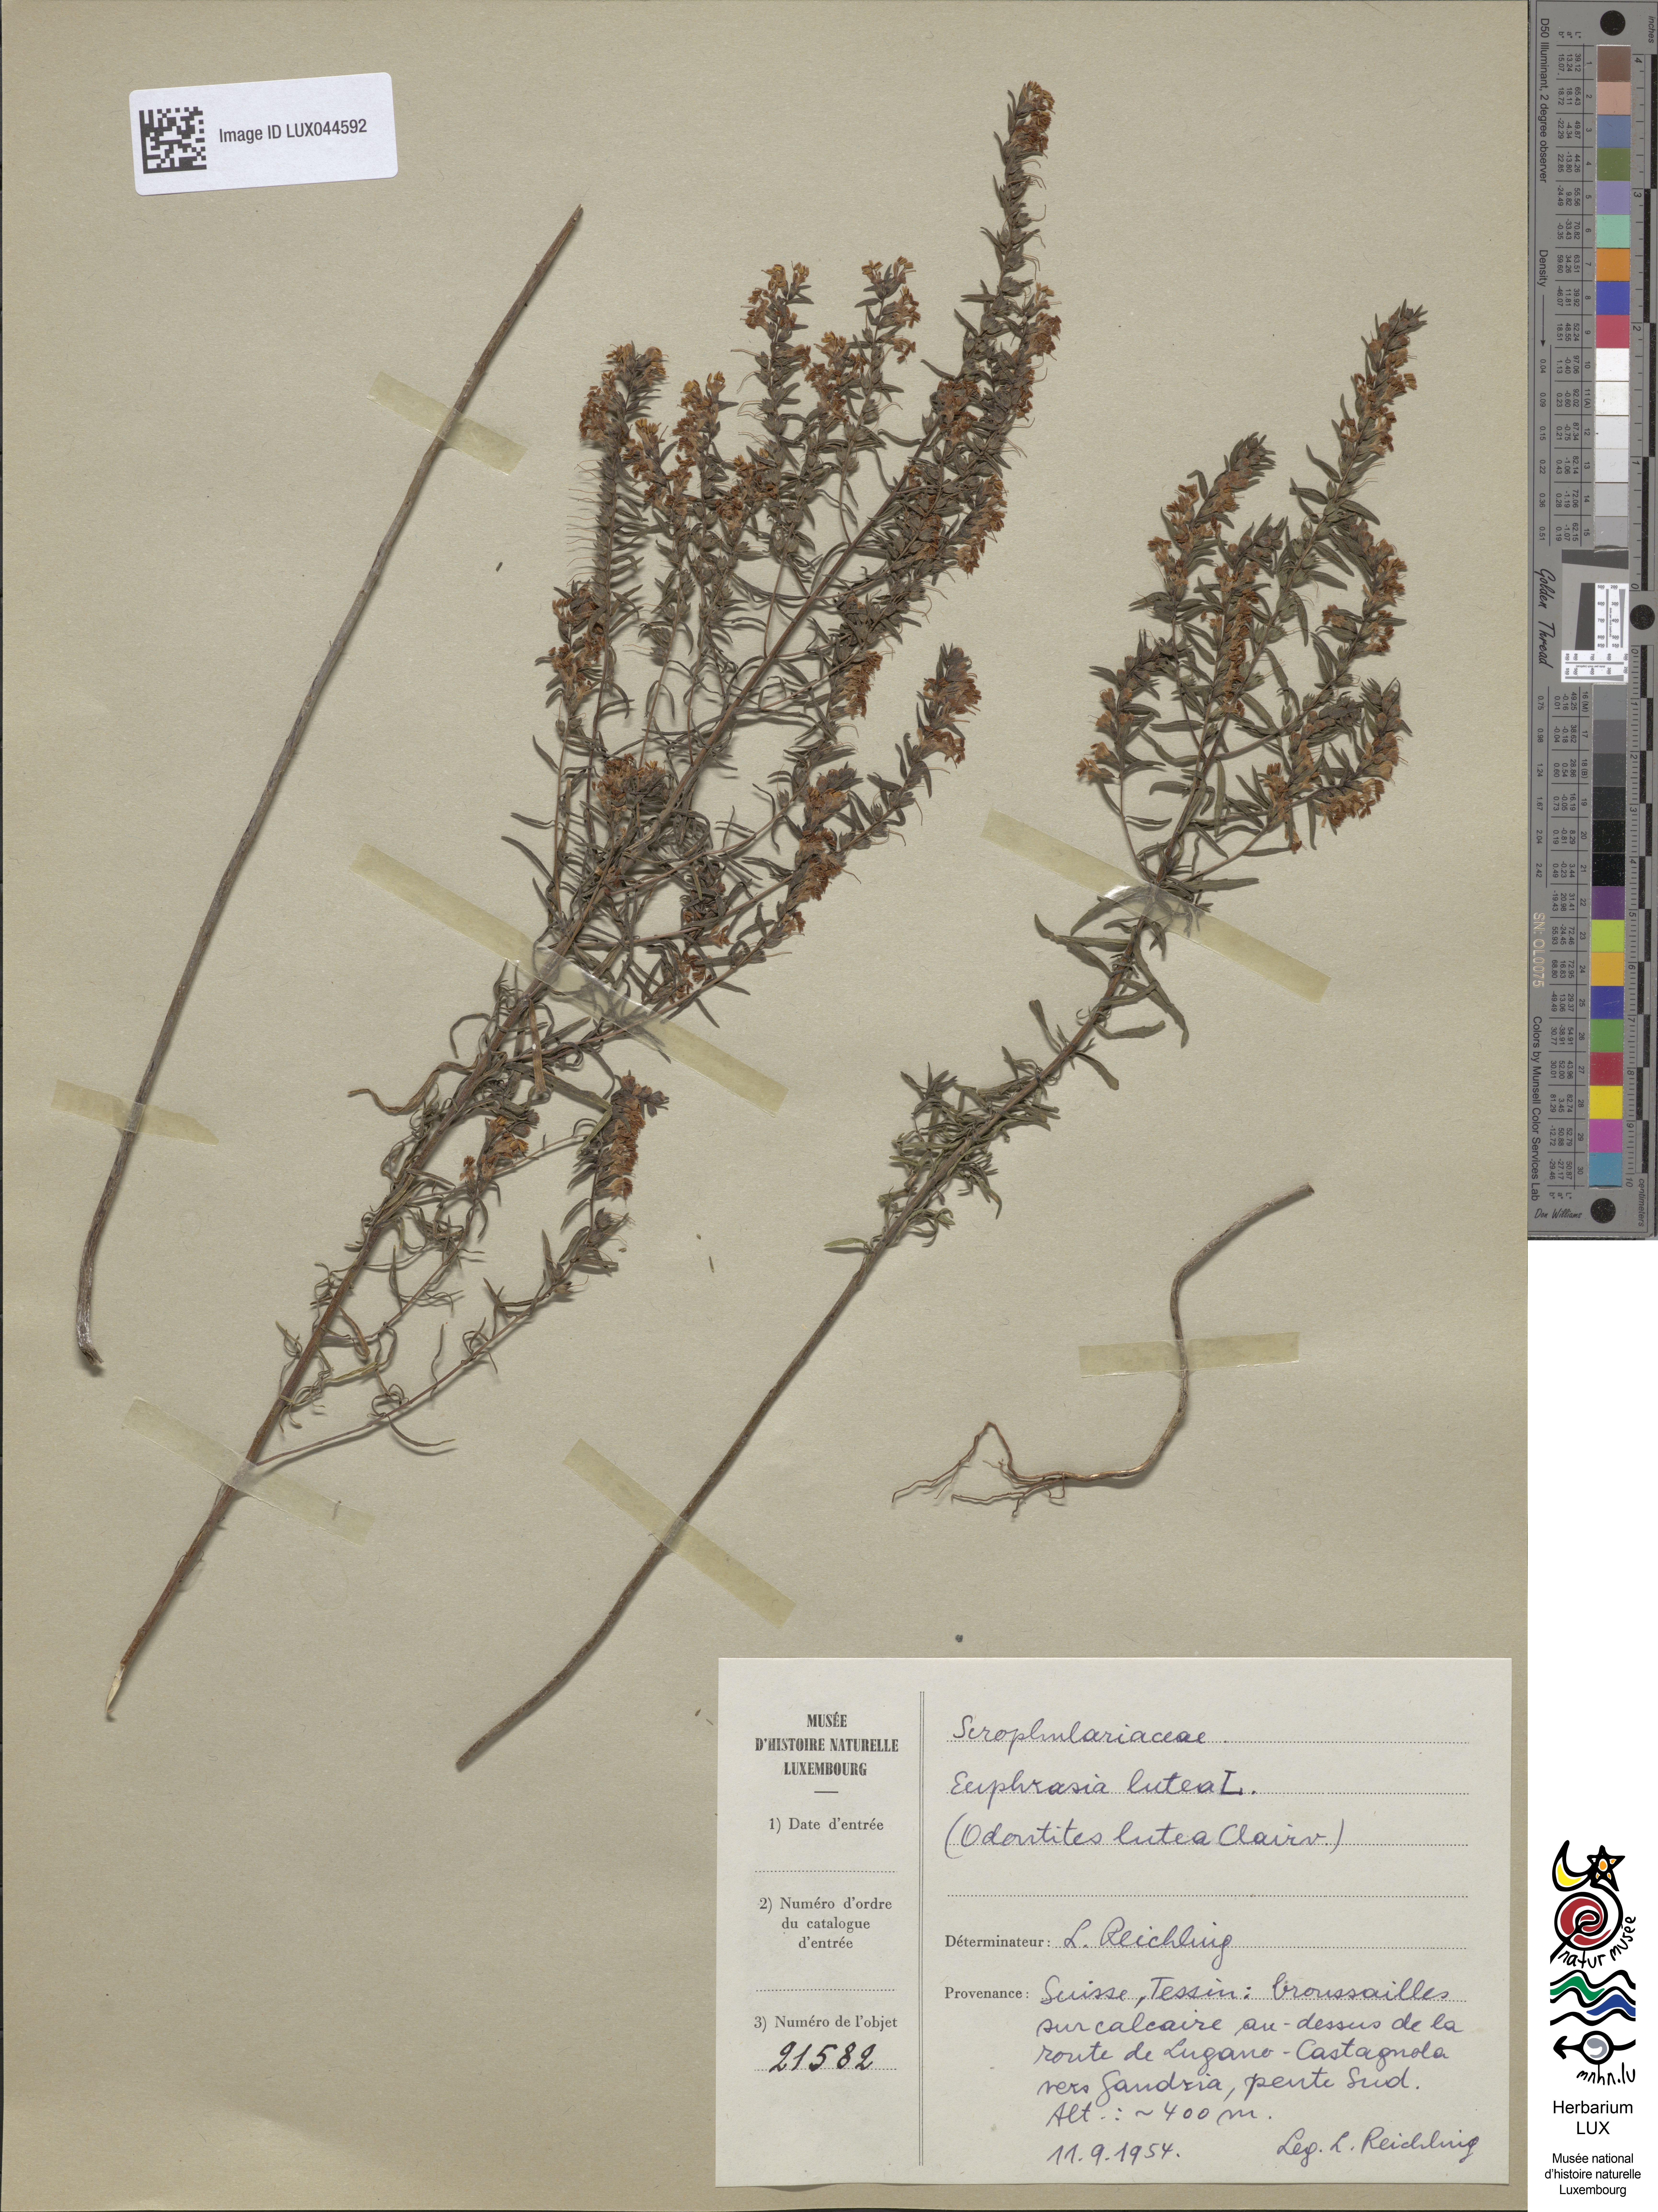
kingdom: Plantae
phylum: Tracheophyta
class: Magnoliopsida
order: Lamiales
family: Orobanchaceae
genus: Odontites
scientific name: Odontites luteus
